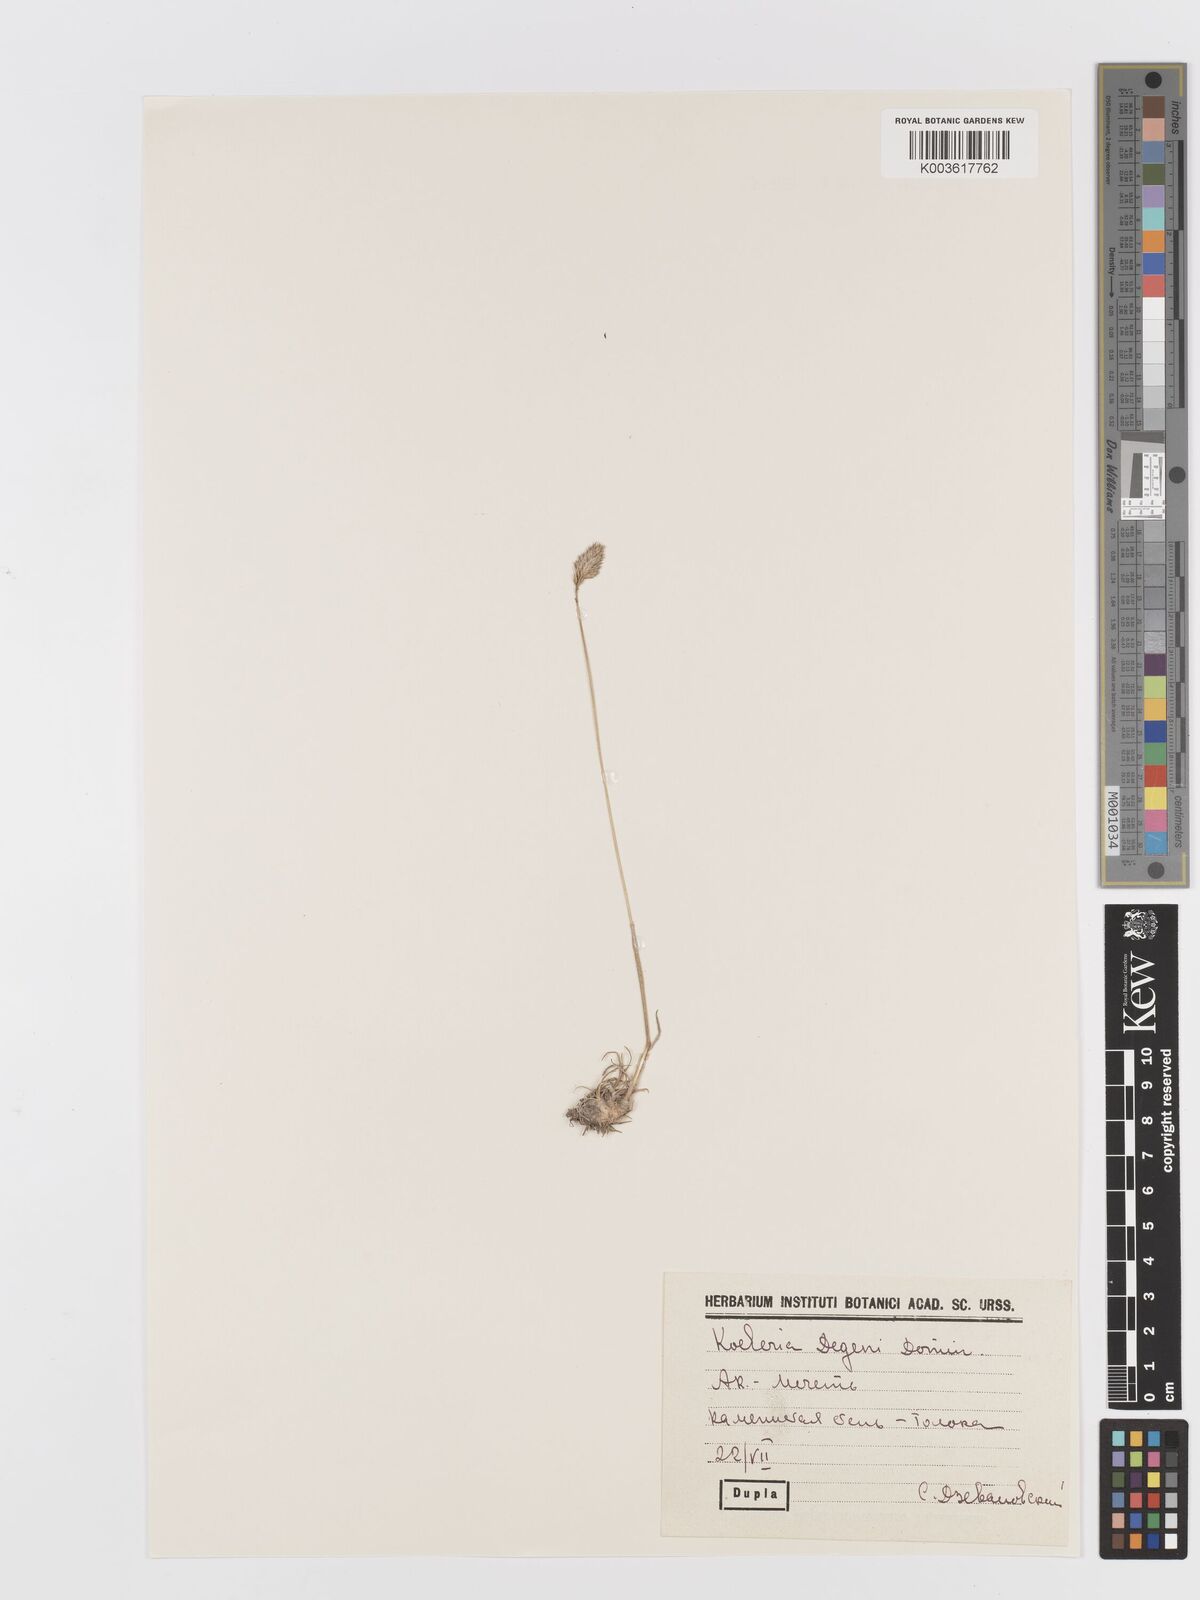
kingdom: Plantae
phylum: Tracheophyta
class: Liliopsida
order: Poales
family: Poaceae
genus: Koeleria
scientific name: Koeleria brevis
